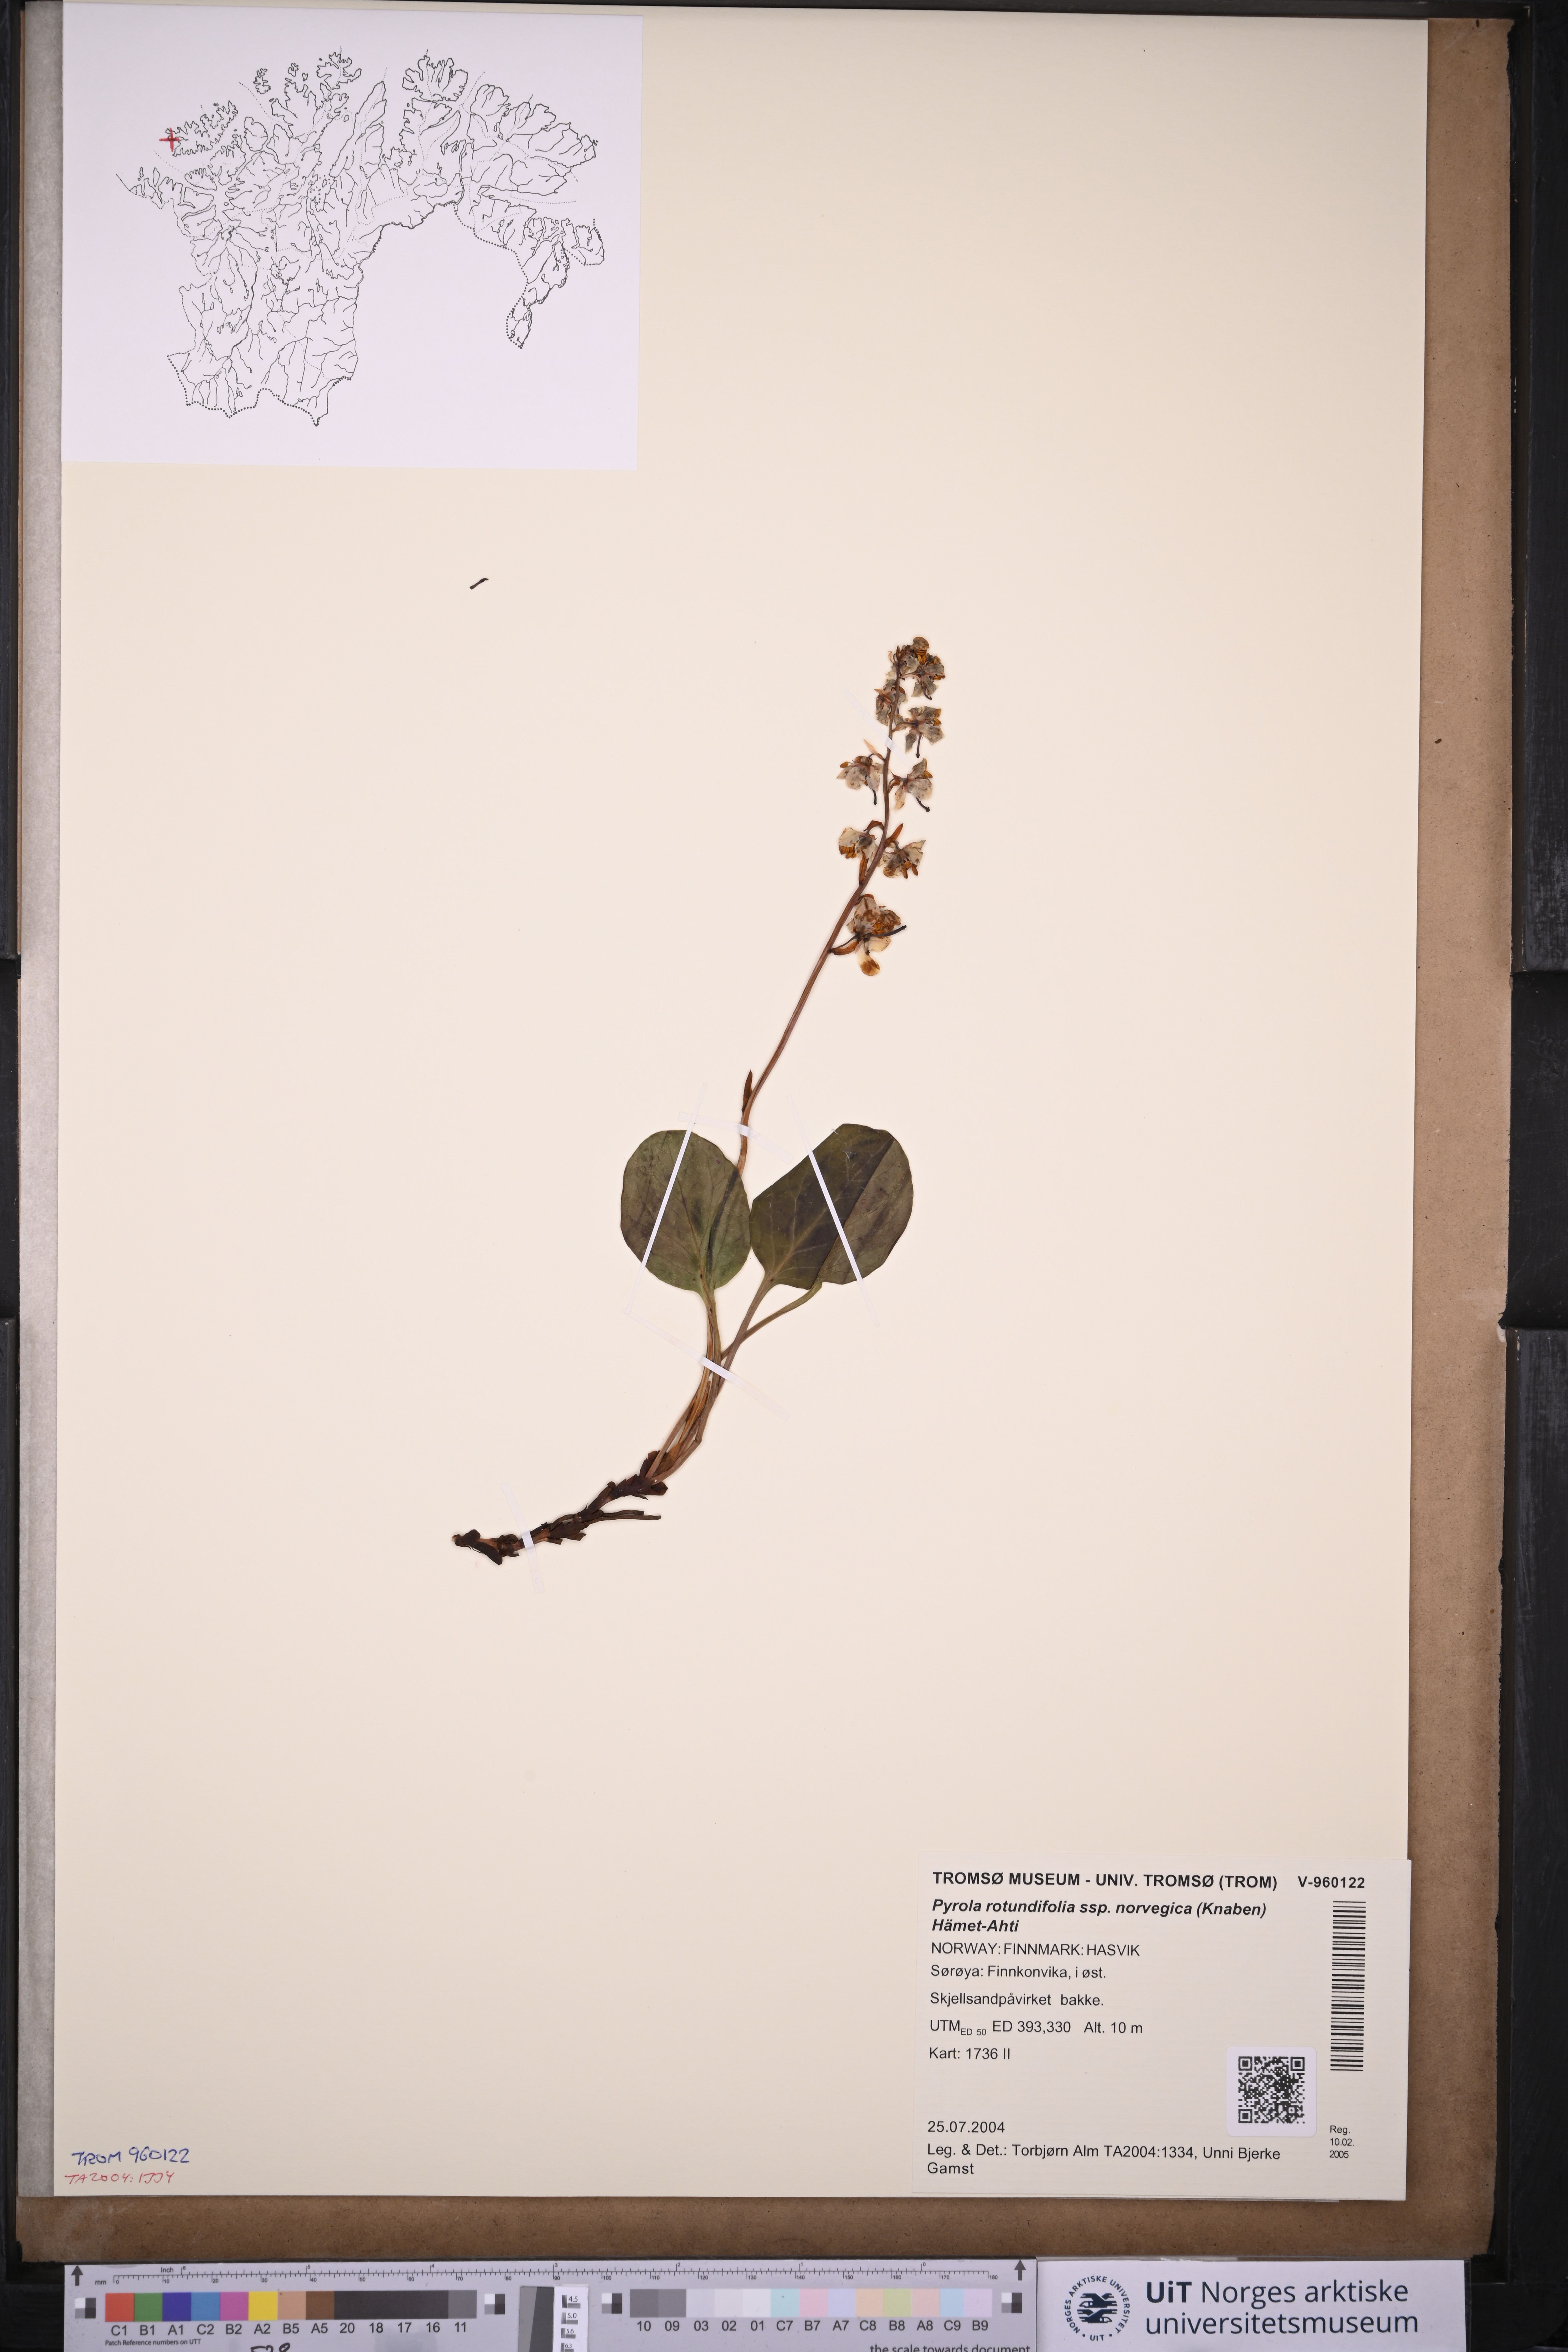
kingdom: Plantae
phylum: Tracheophyta
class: Magnoliopsida
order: Ericales
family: Ericaceae
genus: Pyrola
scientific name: Pyrola rotundifolia
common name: Round-leaved wintergreen
